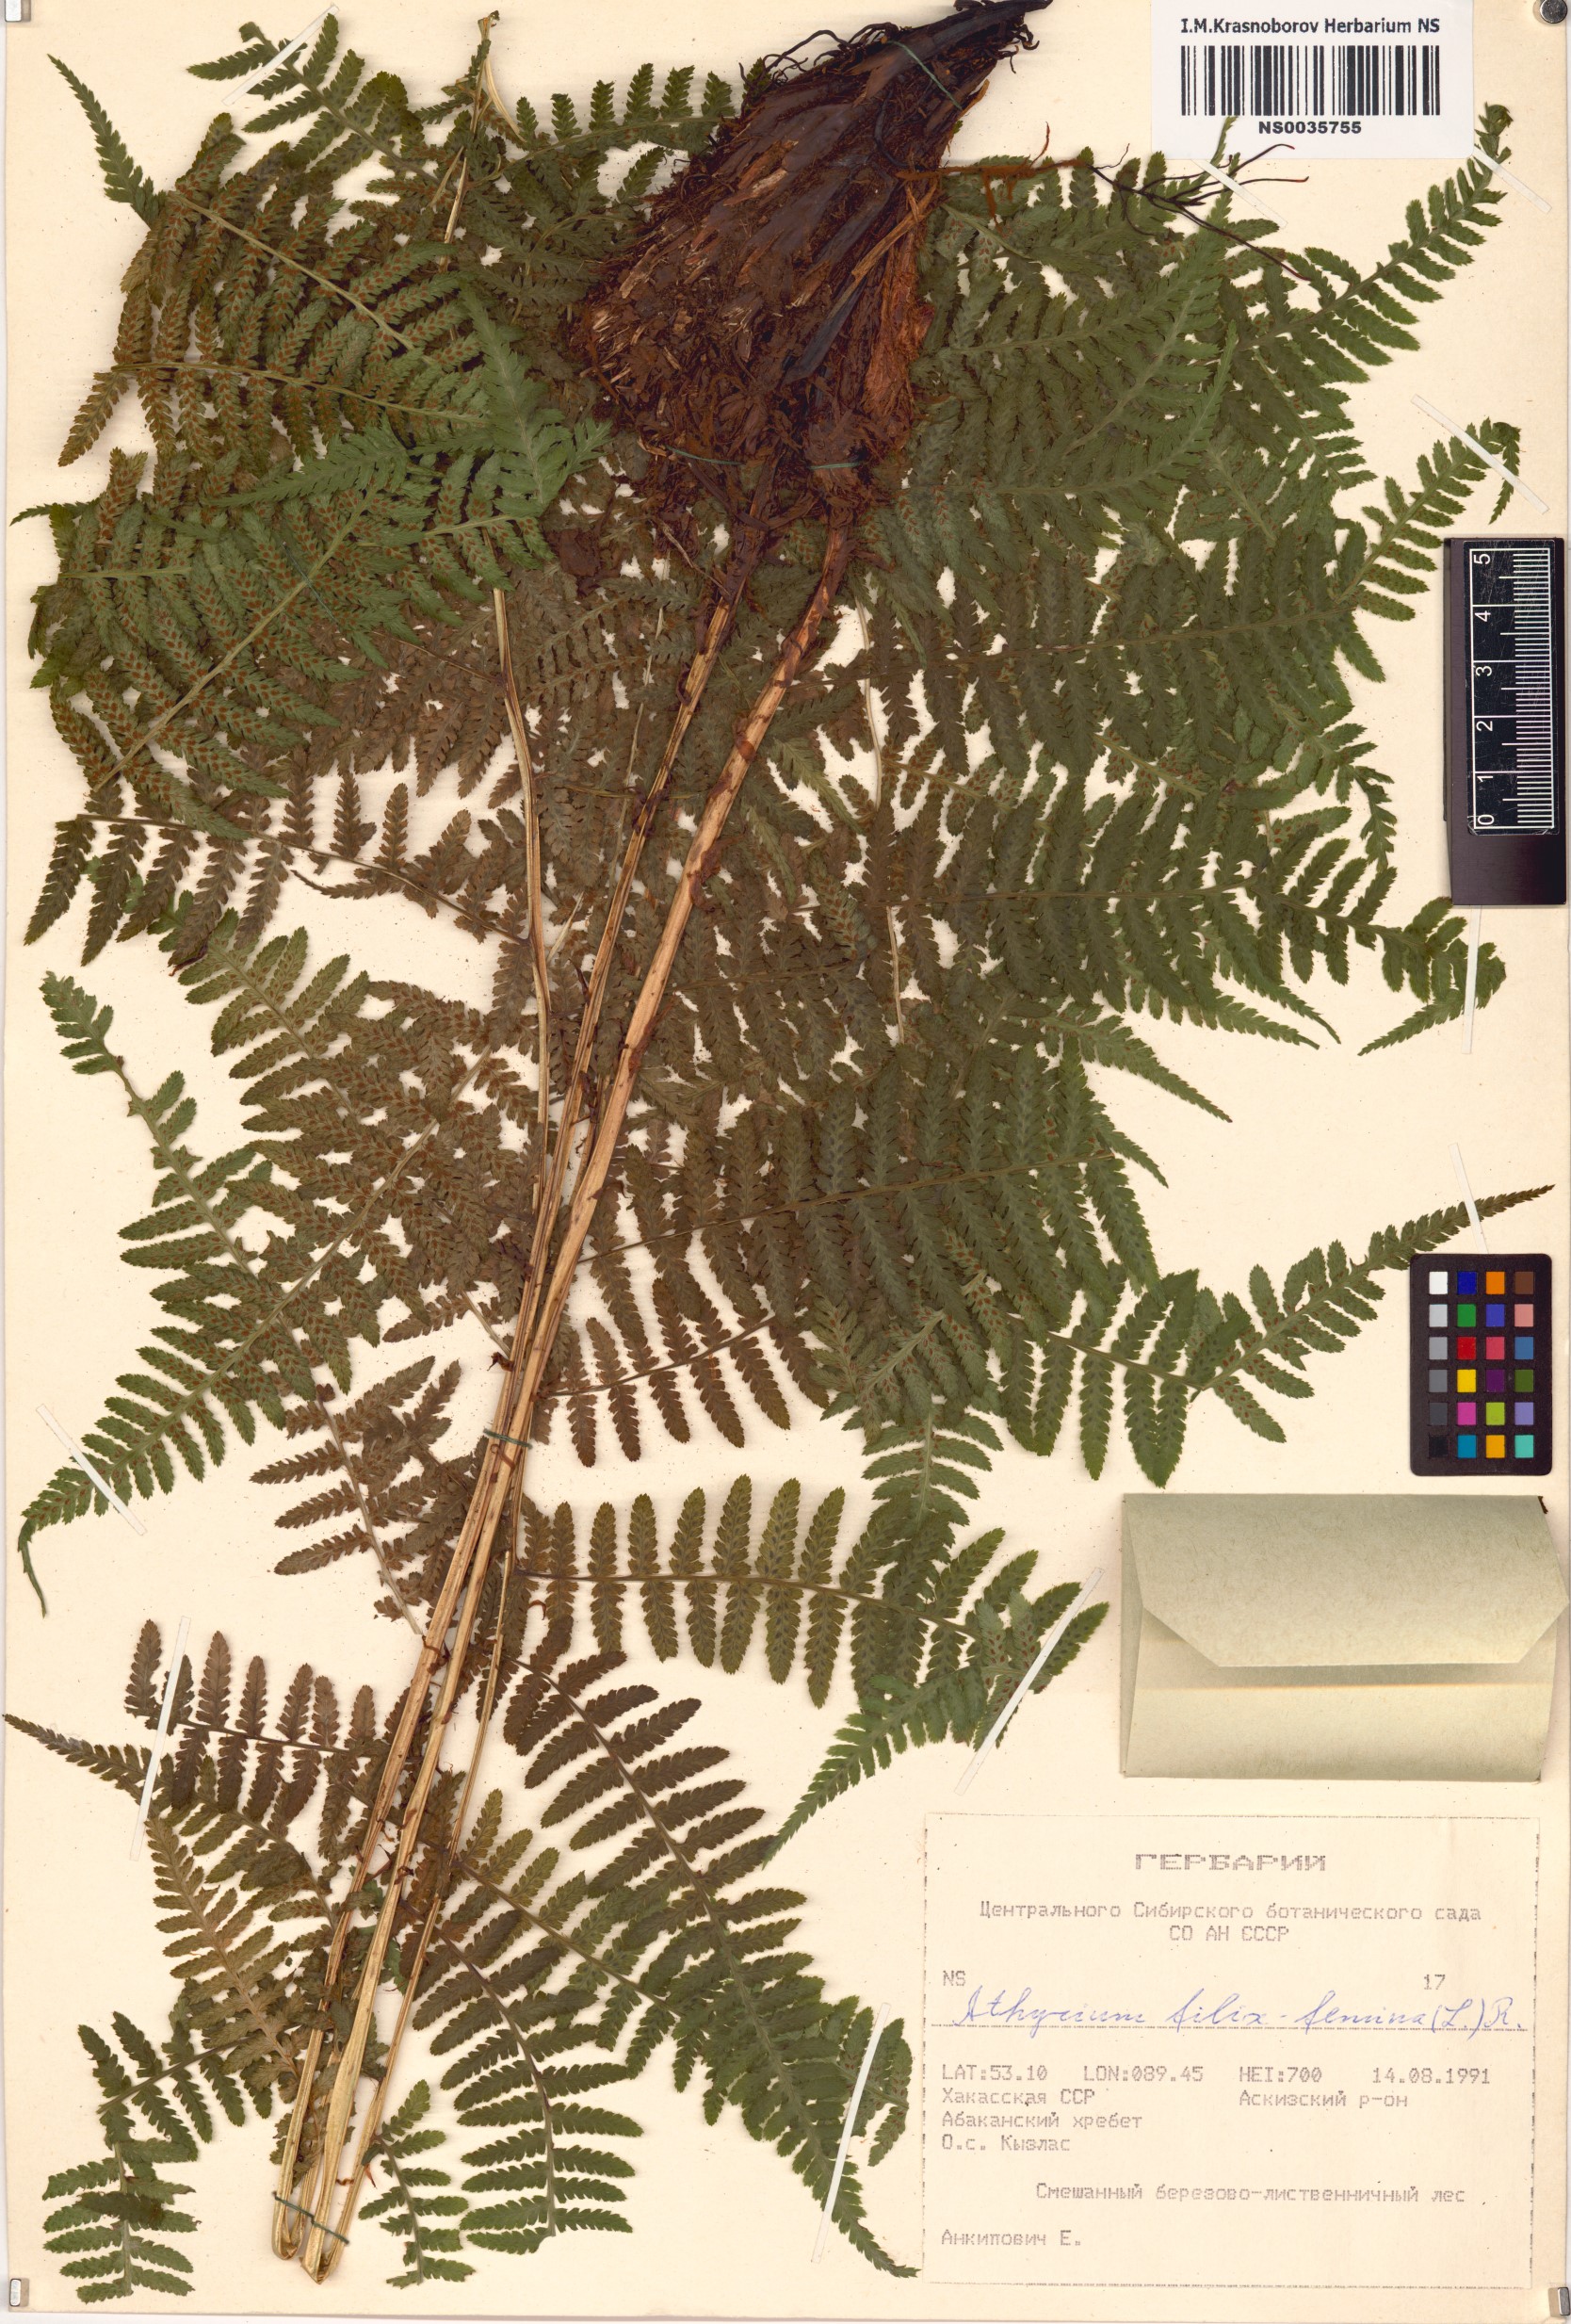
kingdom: Plantae
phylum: Tracheophyta
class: Polypodiopsida
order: Polypodiales
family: Athyriaceae
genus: Athyrium
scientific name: Athyrium filix-femina
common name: Lady fern
